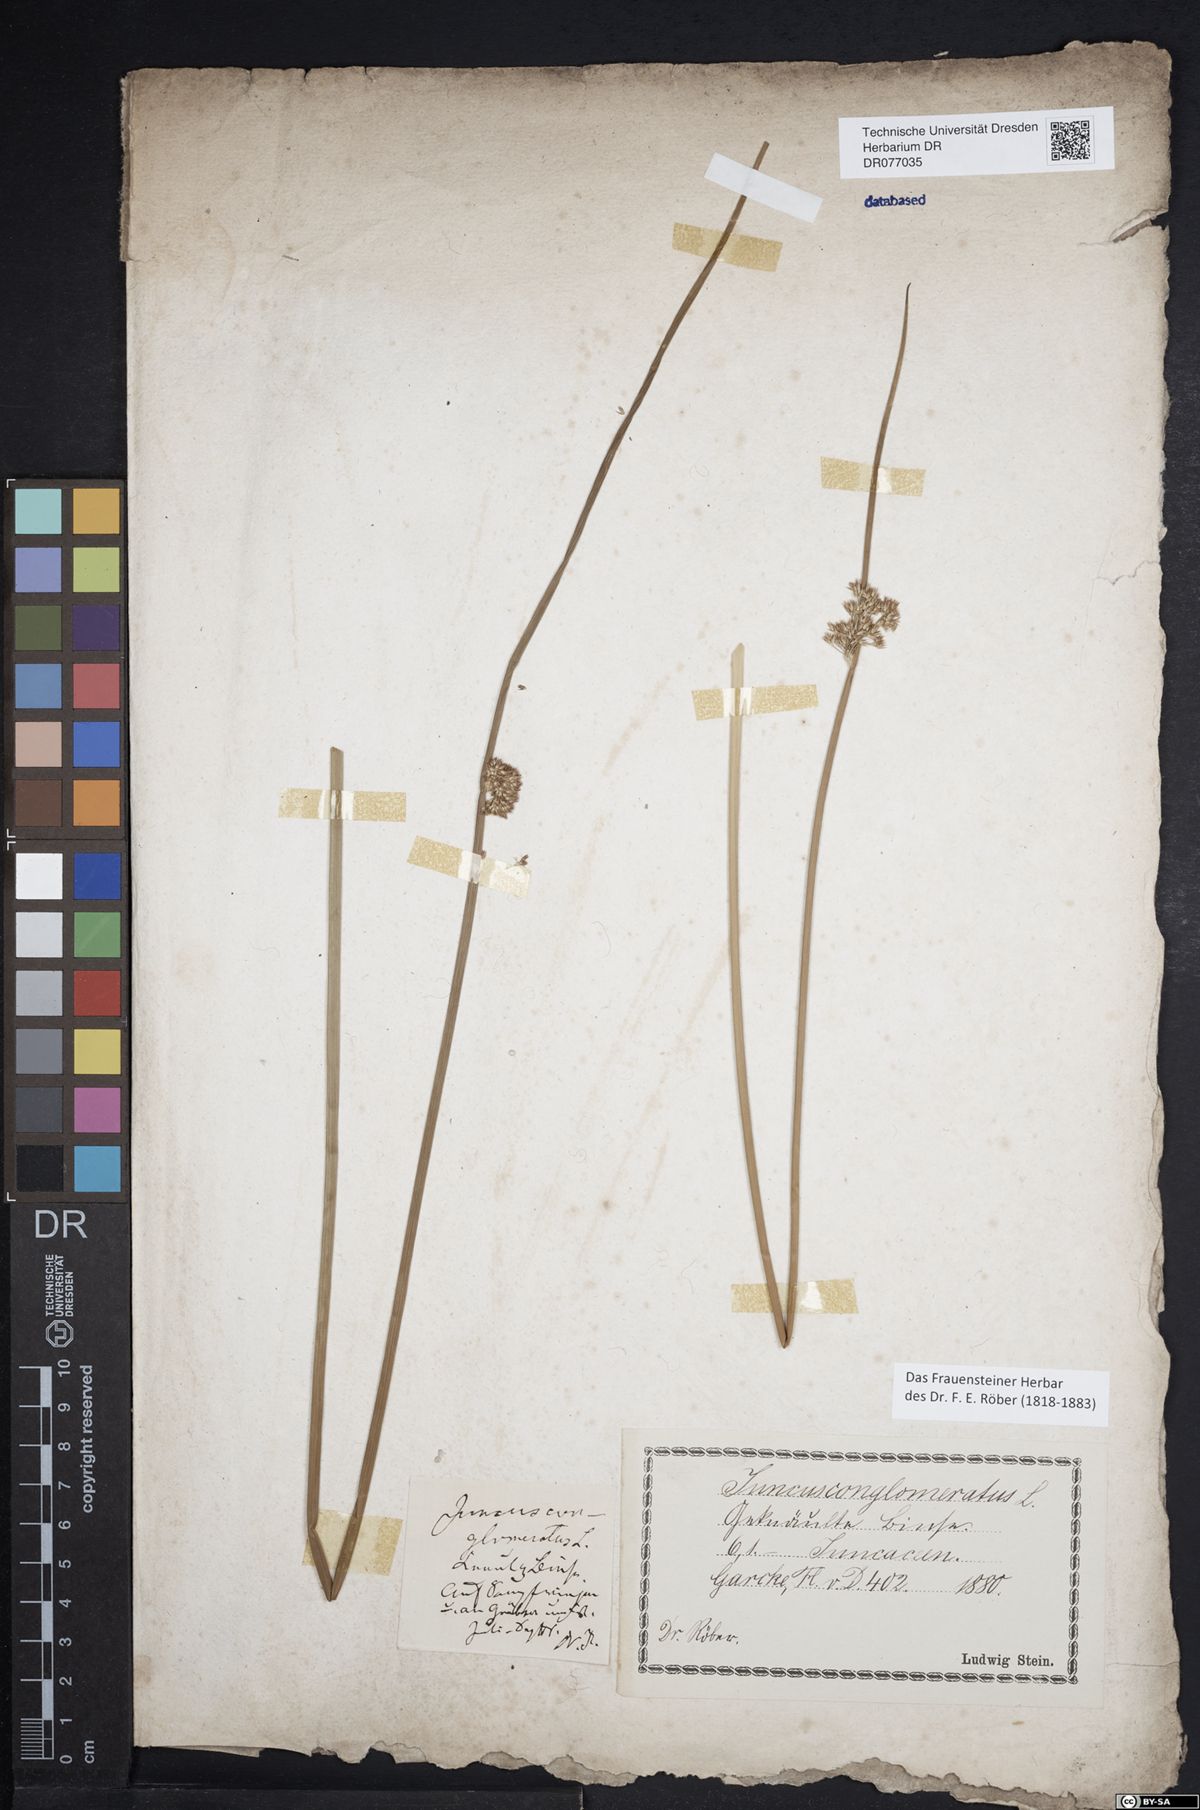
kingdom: Plantae
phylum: Tracheophyta
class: Liliopsida
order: Poales
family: Juncaceae
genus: Juncus
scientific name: Juncus conglomeratus
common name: Compact rush
